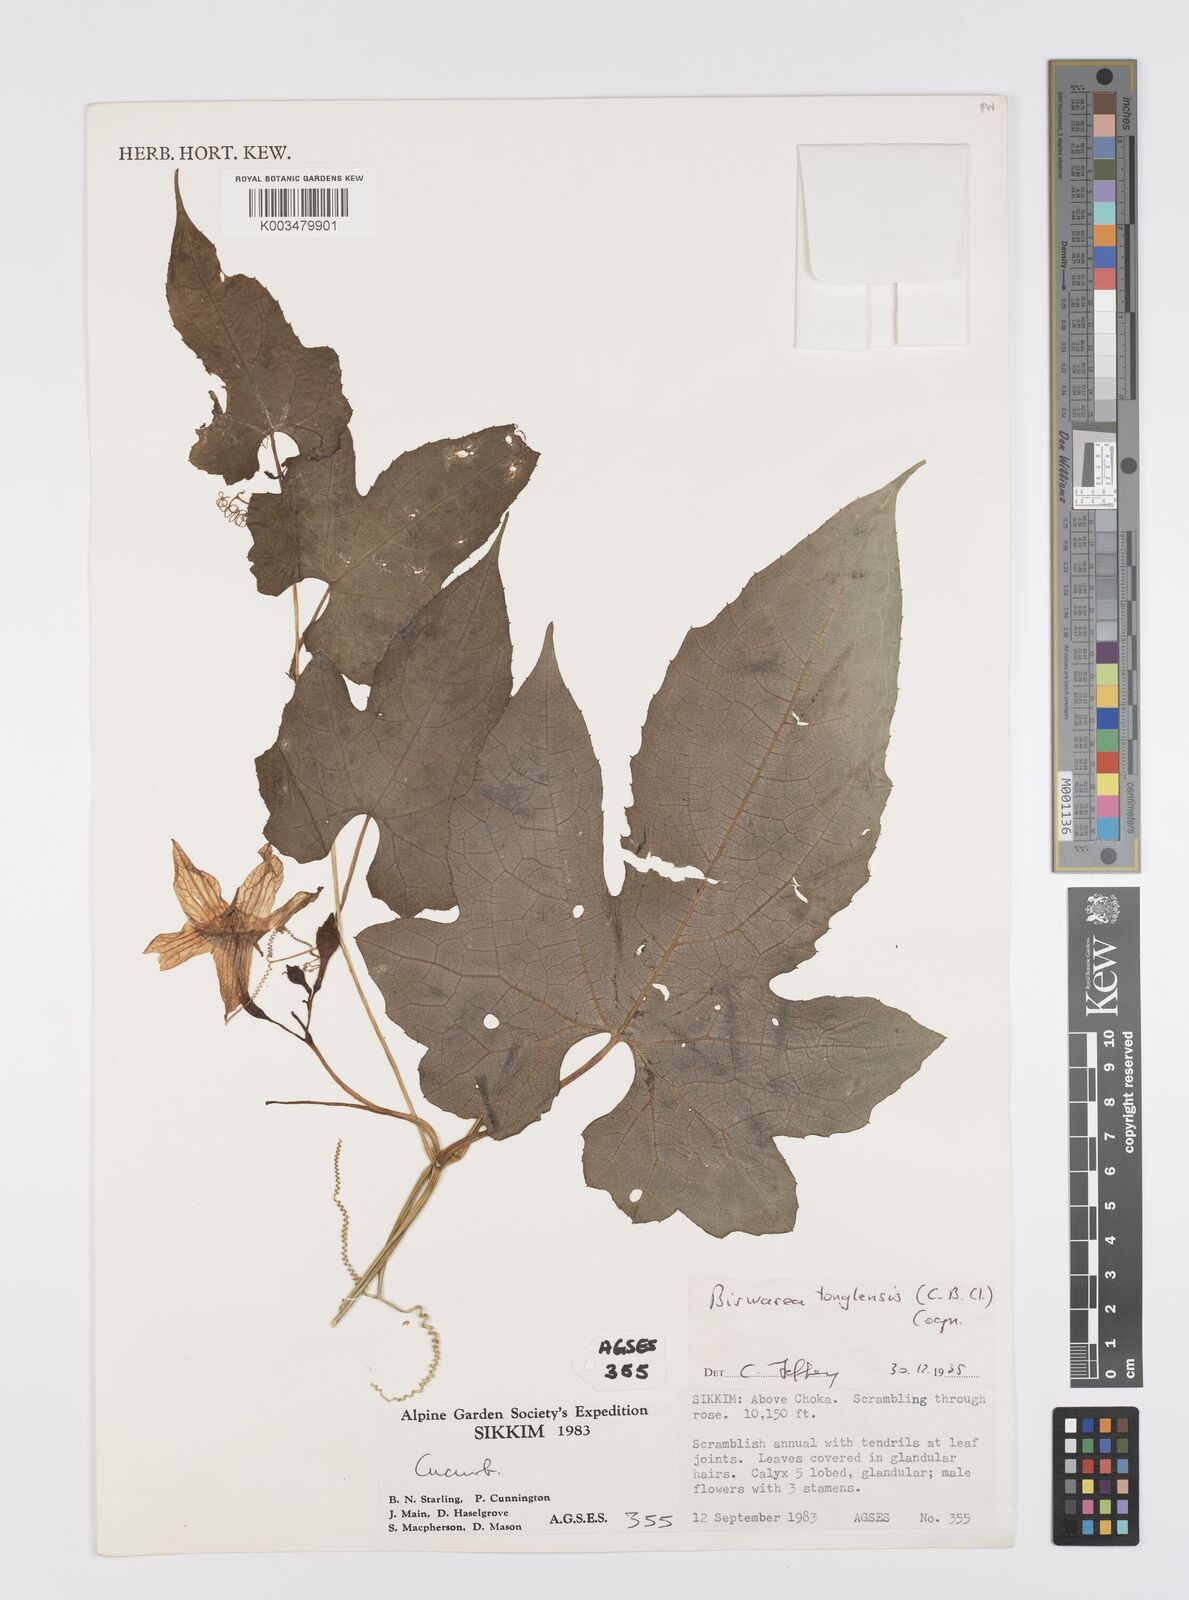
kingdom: Plantae
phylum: Tracheophyta
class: Magnoliopsida
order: Cucurbitales
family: Cucurbitaceae
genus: Benincasa
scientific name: Benincasa
